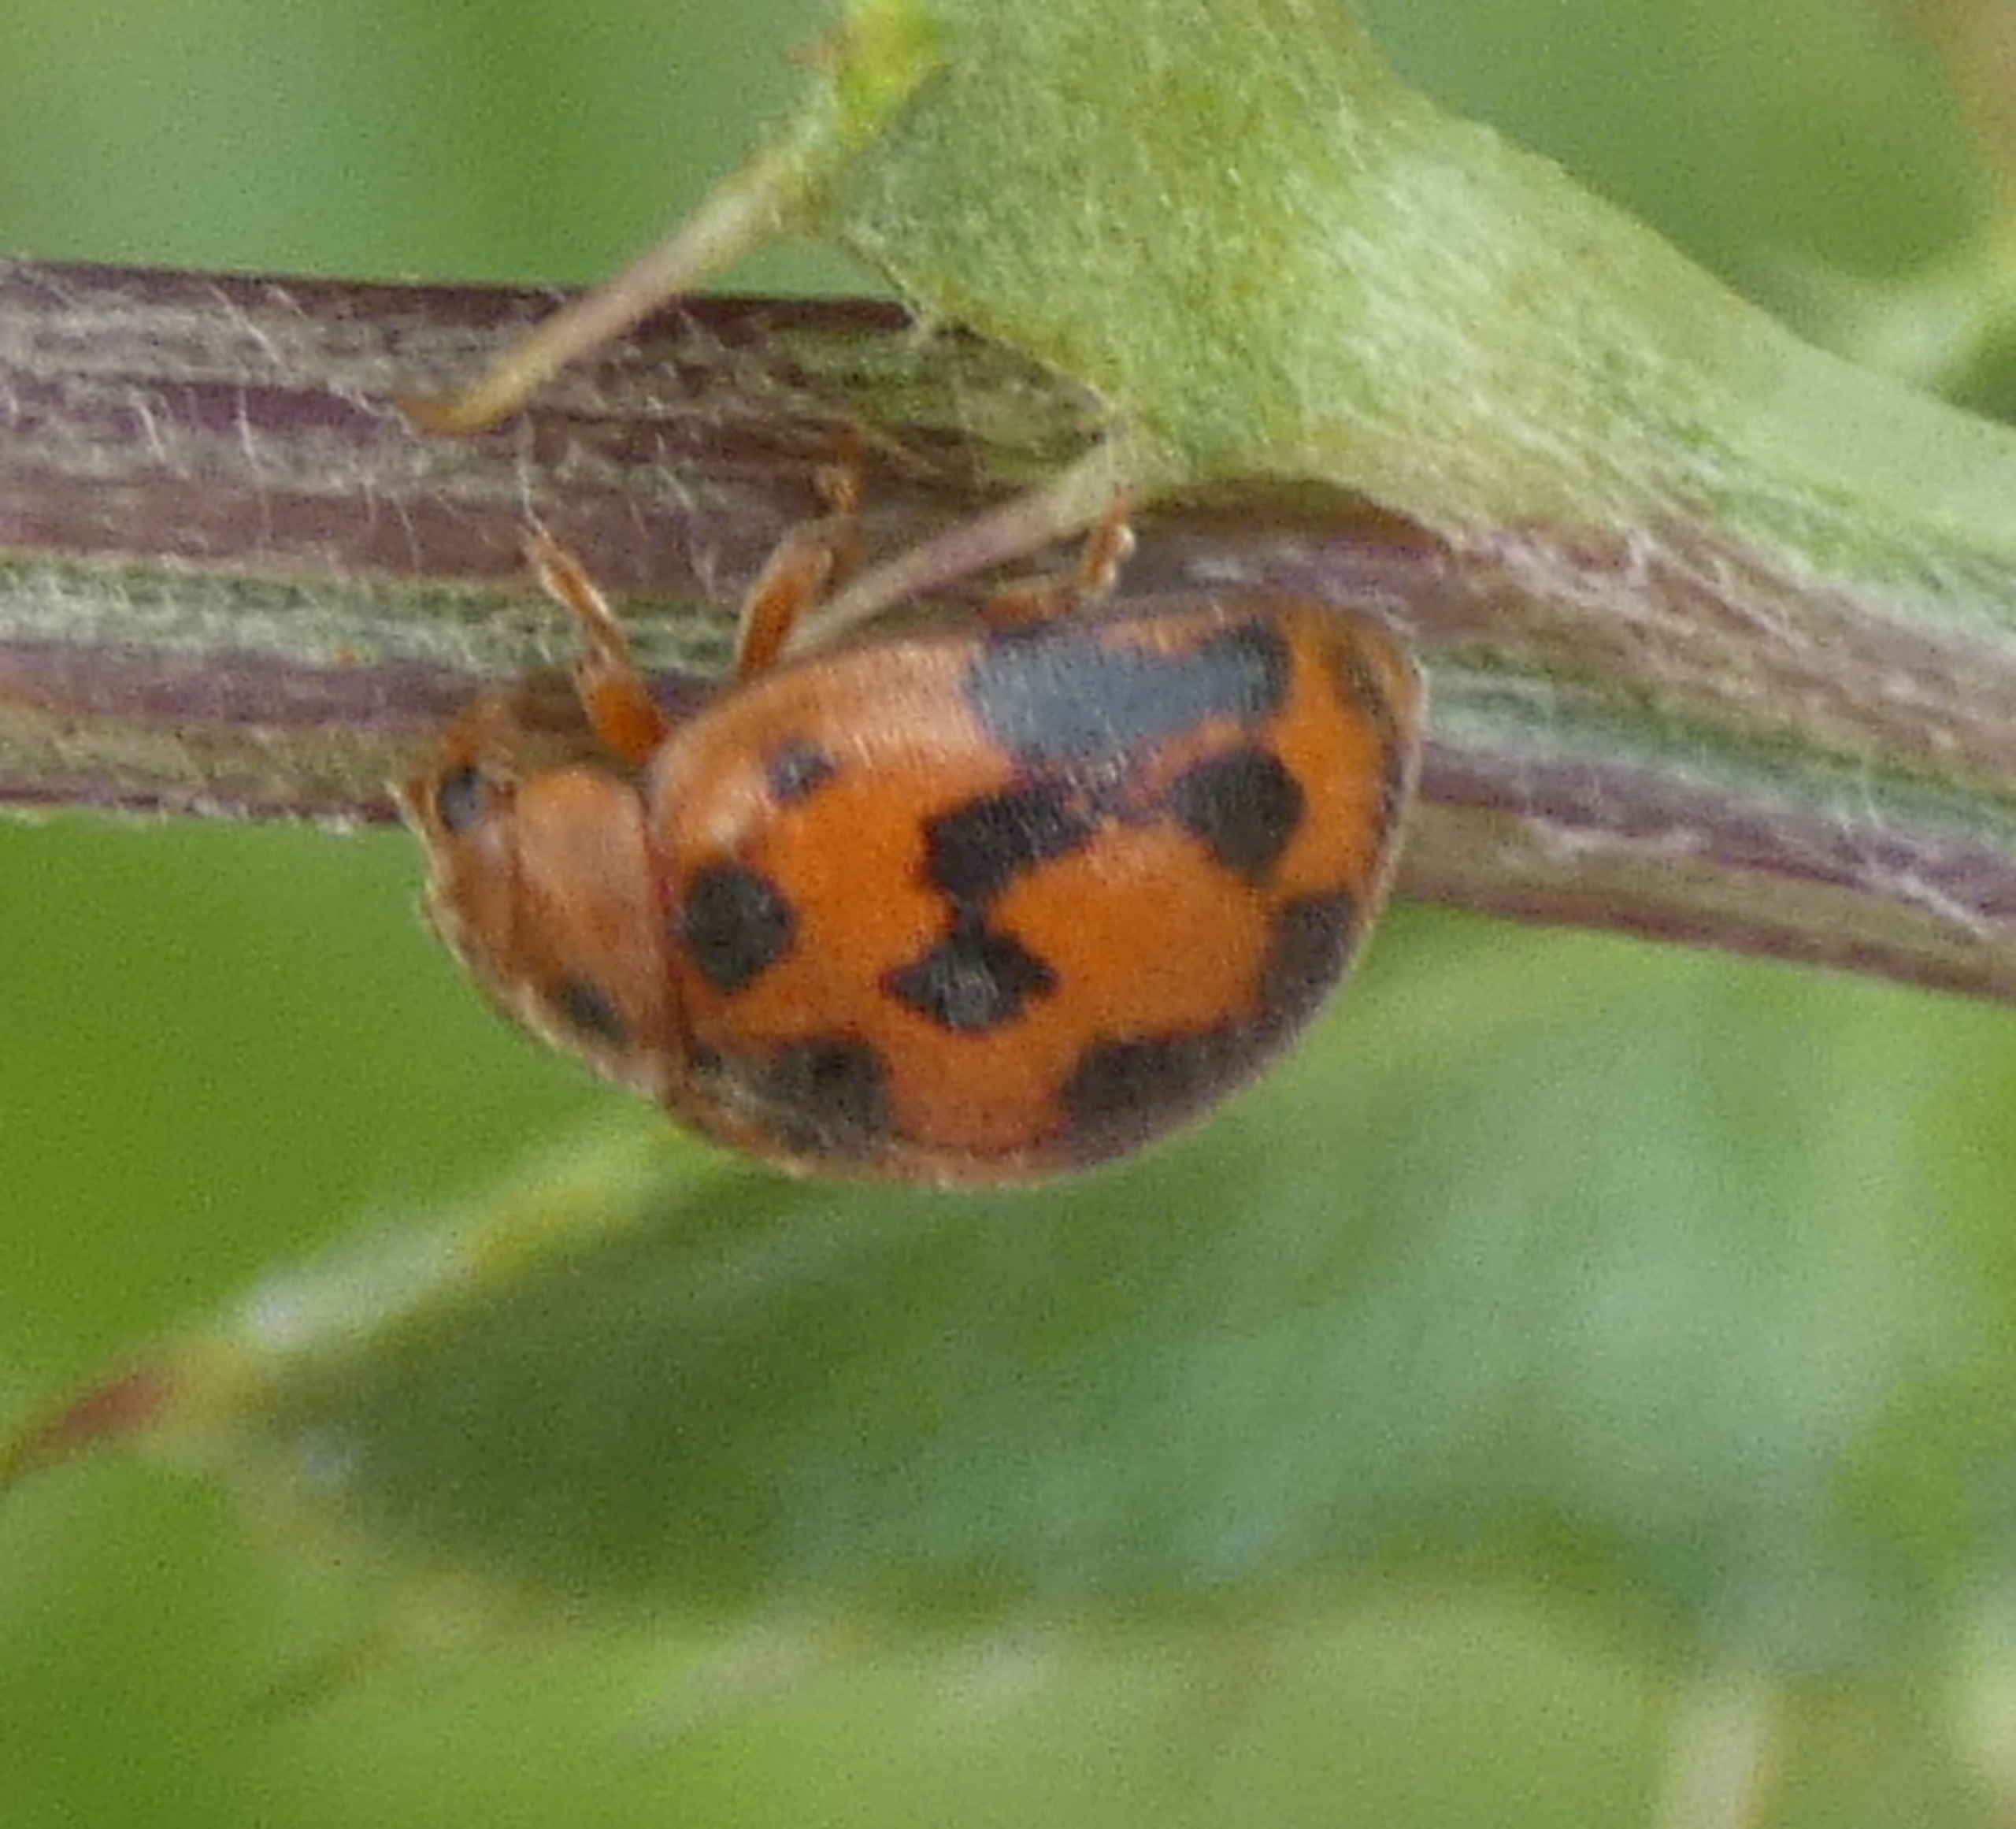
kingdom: Animalia
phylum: Arthropoda
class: Insecta
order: Coleoptera
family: Coccinellidae
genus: Subcoccinella
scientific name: Subcoccinella vigintiquatuorpunctata
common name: Fireogtyveplettet mariehøne
